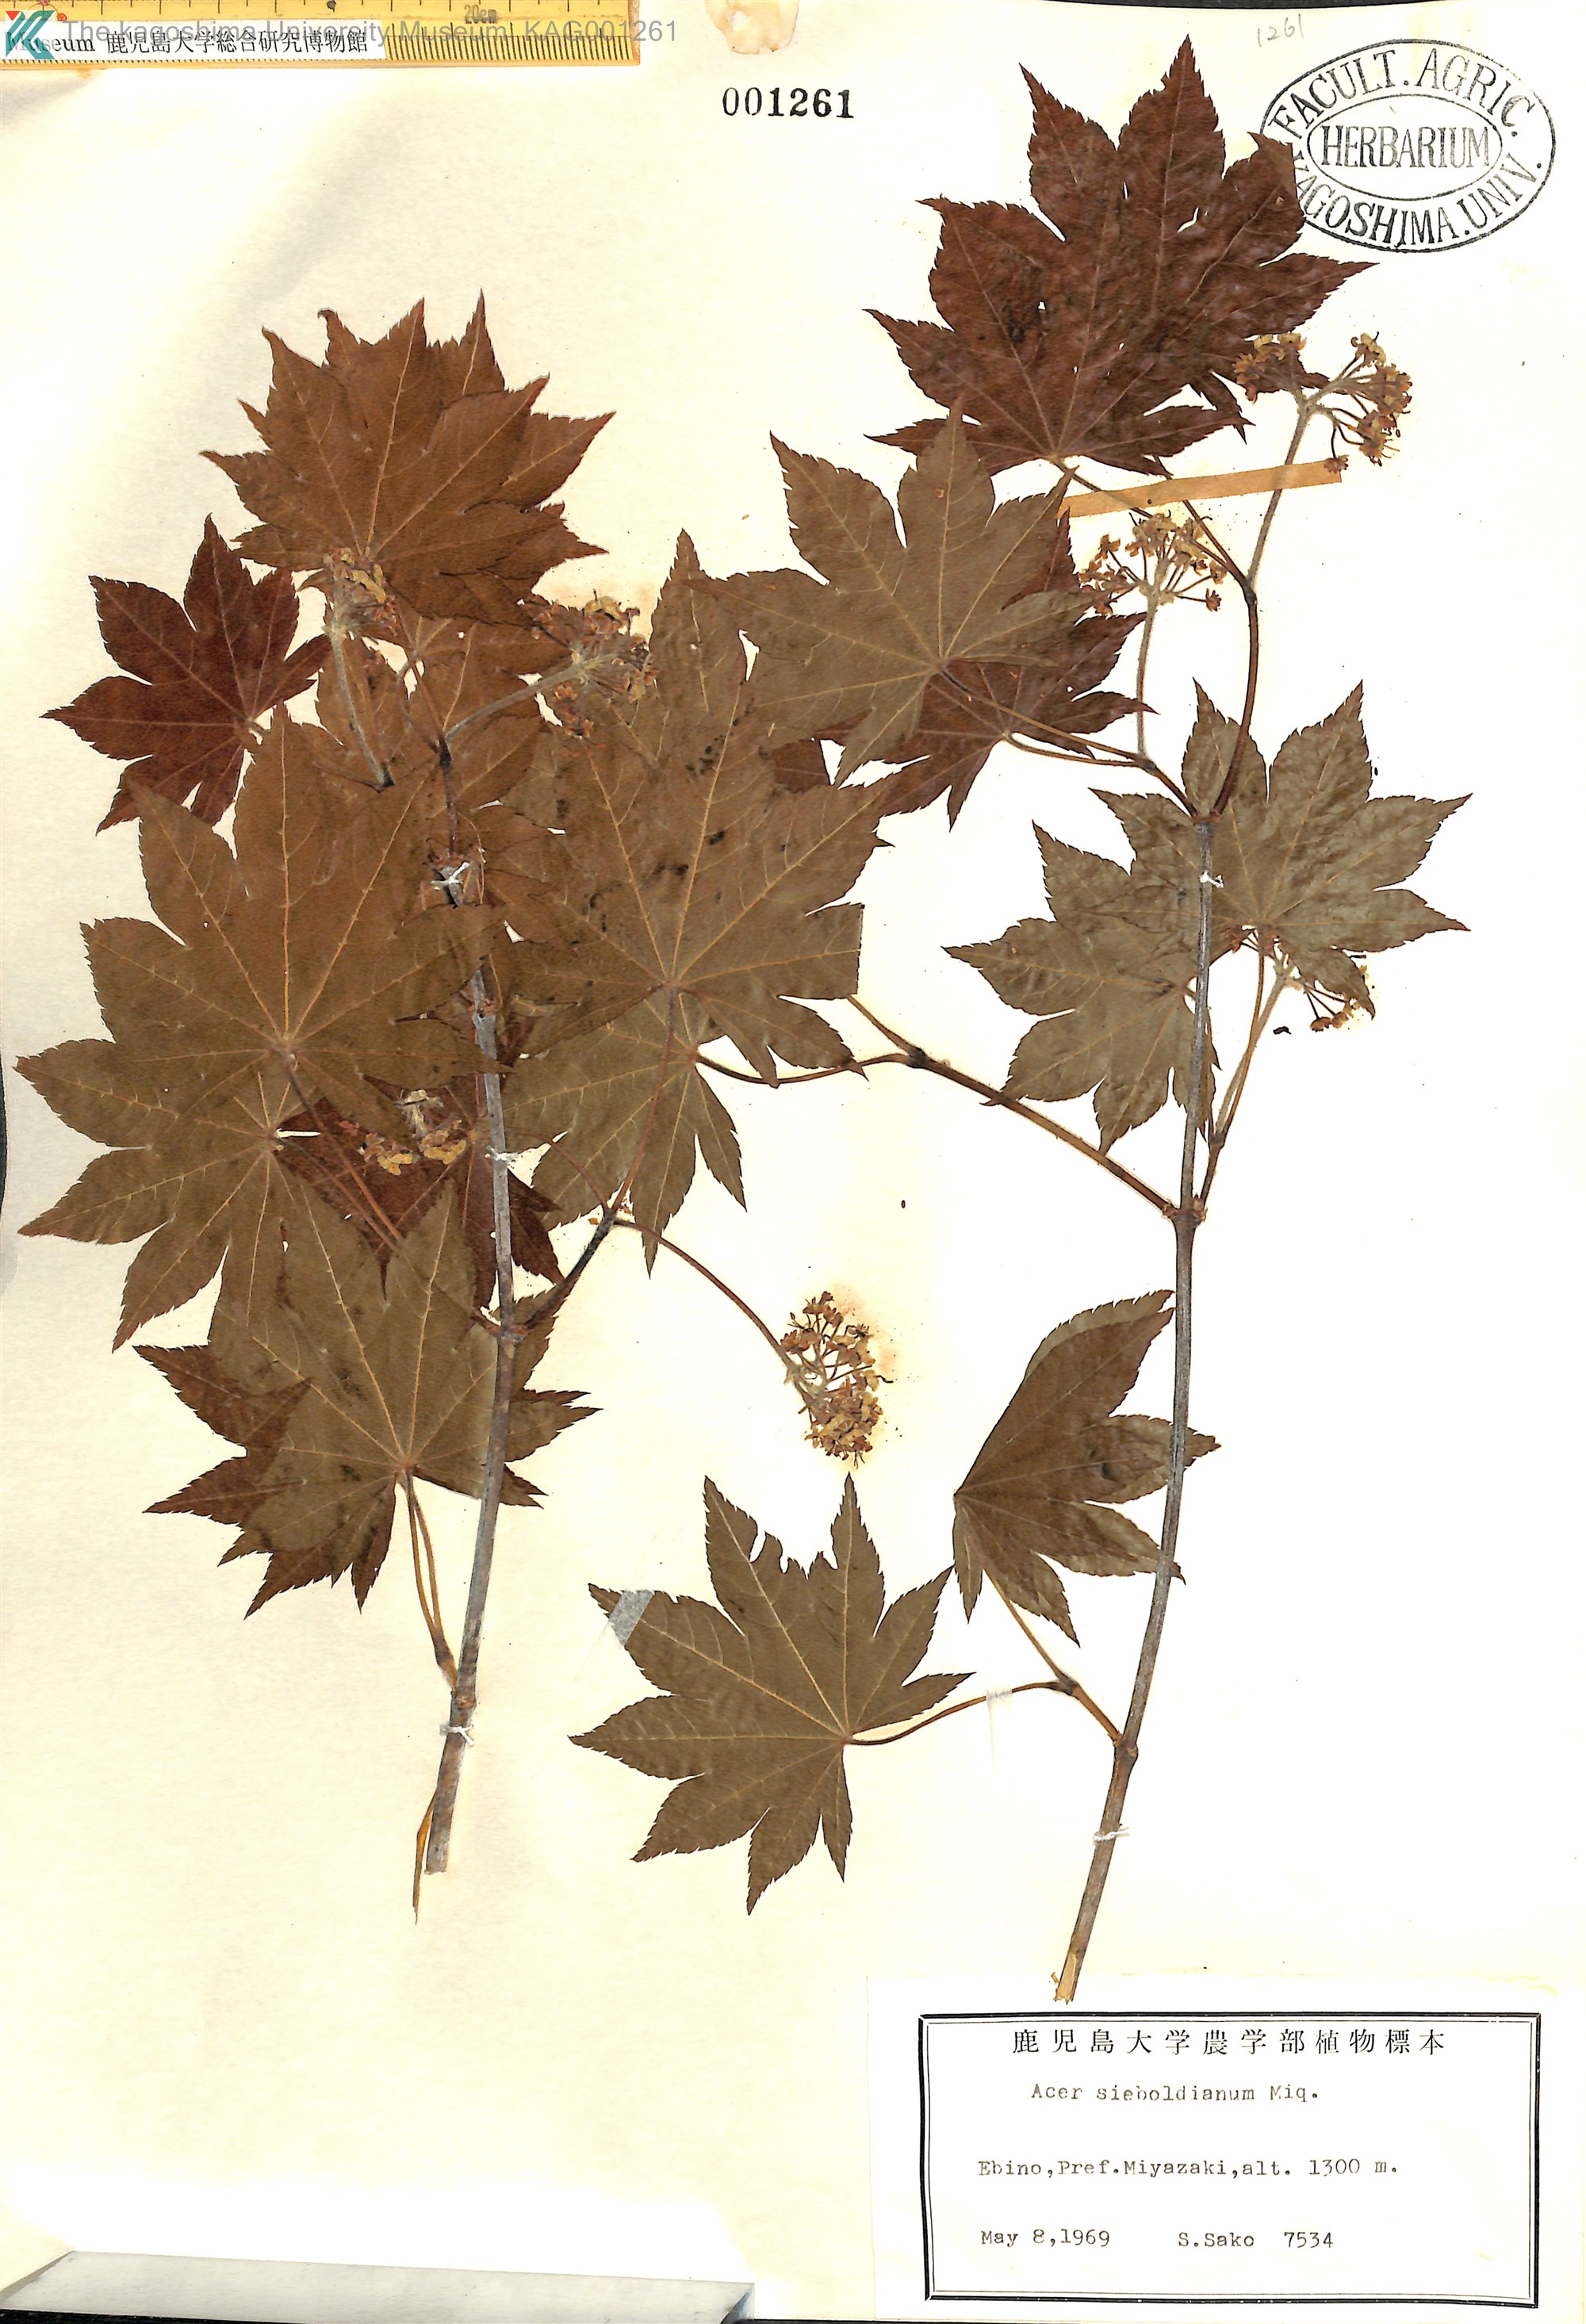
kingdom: Plantae
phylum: Tracheophyta
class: Magnoliopsida
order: Sapindales
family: Sapindaceae
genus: Acer
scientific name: Acer sieboldianum
